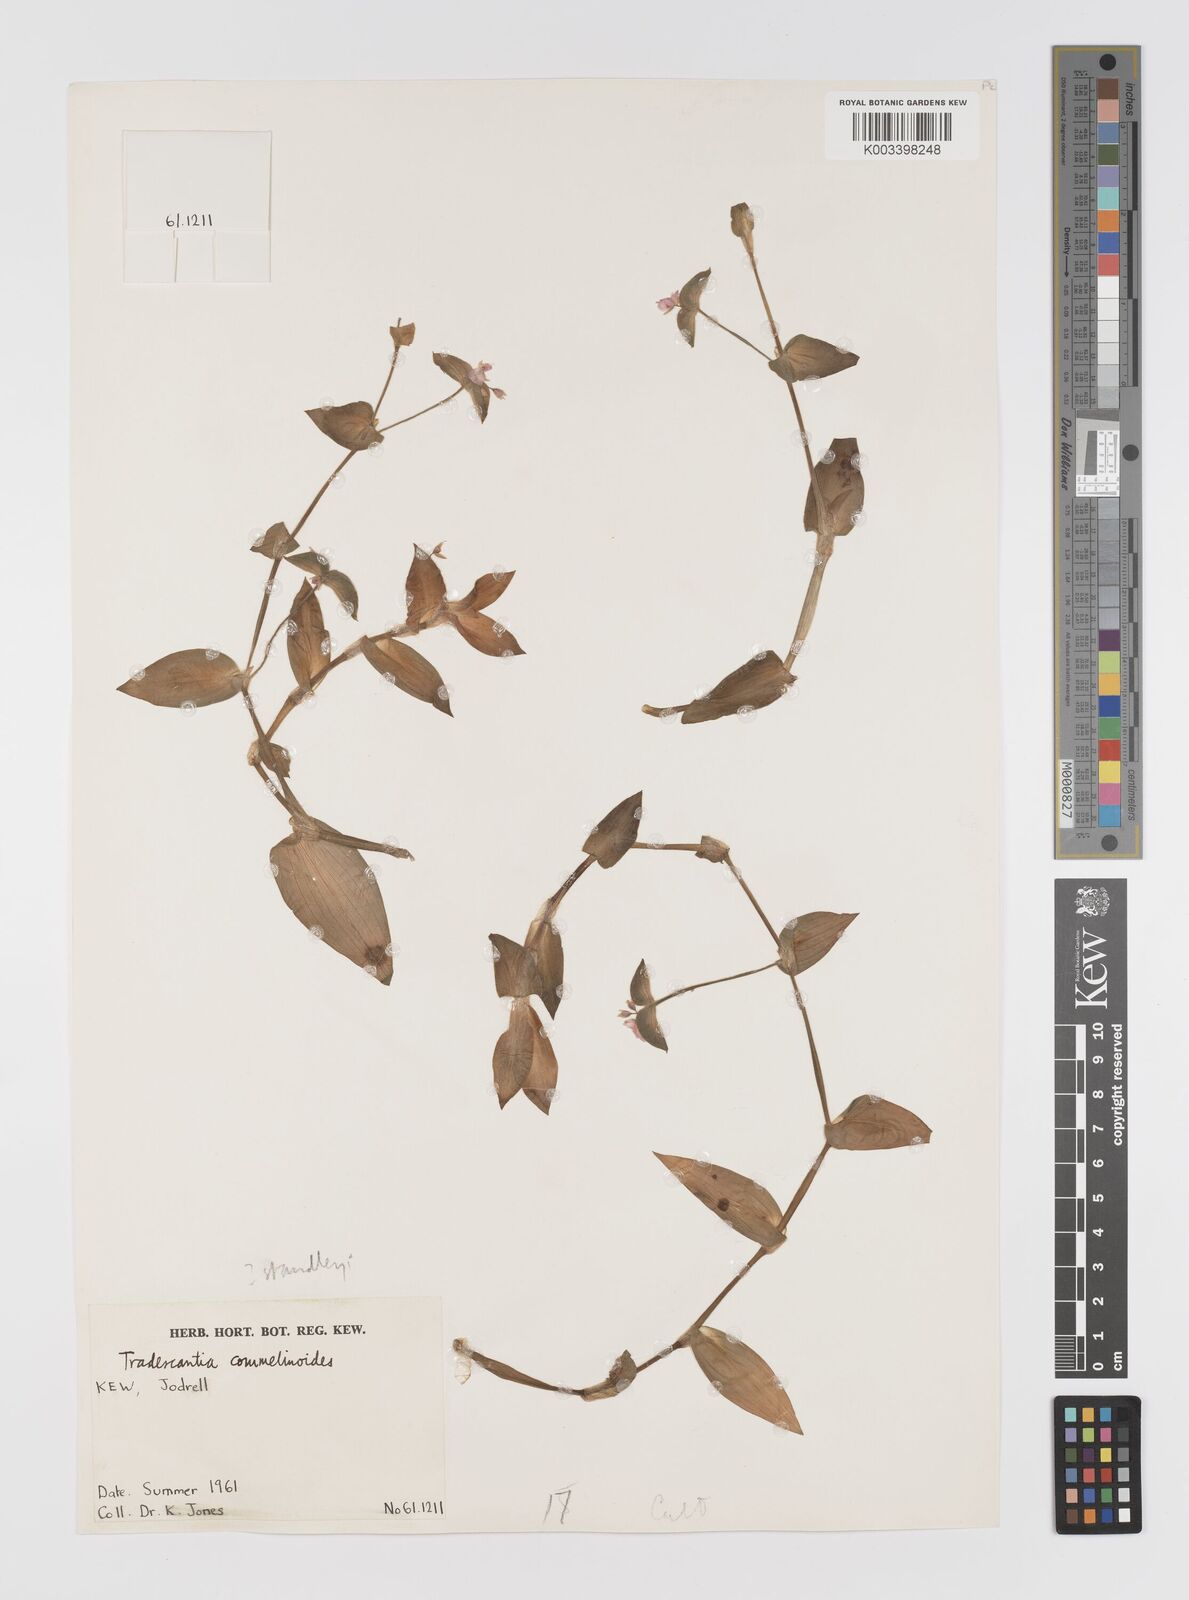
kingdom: Plantae
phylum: Tracheophyta
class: Liliopsida
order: Commelinales
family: Commelinaceae
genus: Tradescantia
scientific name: Tradescantia standleyi
